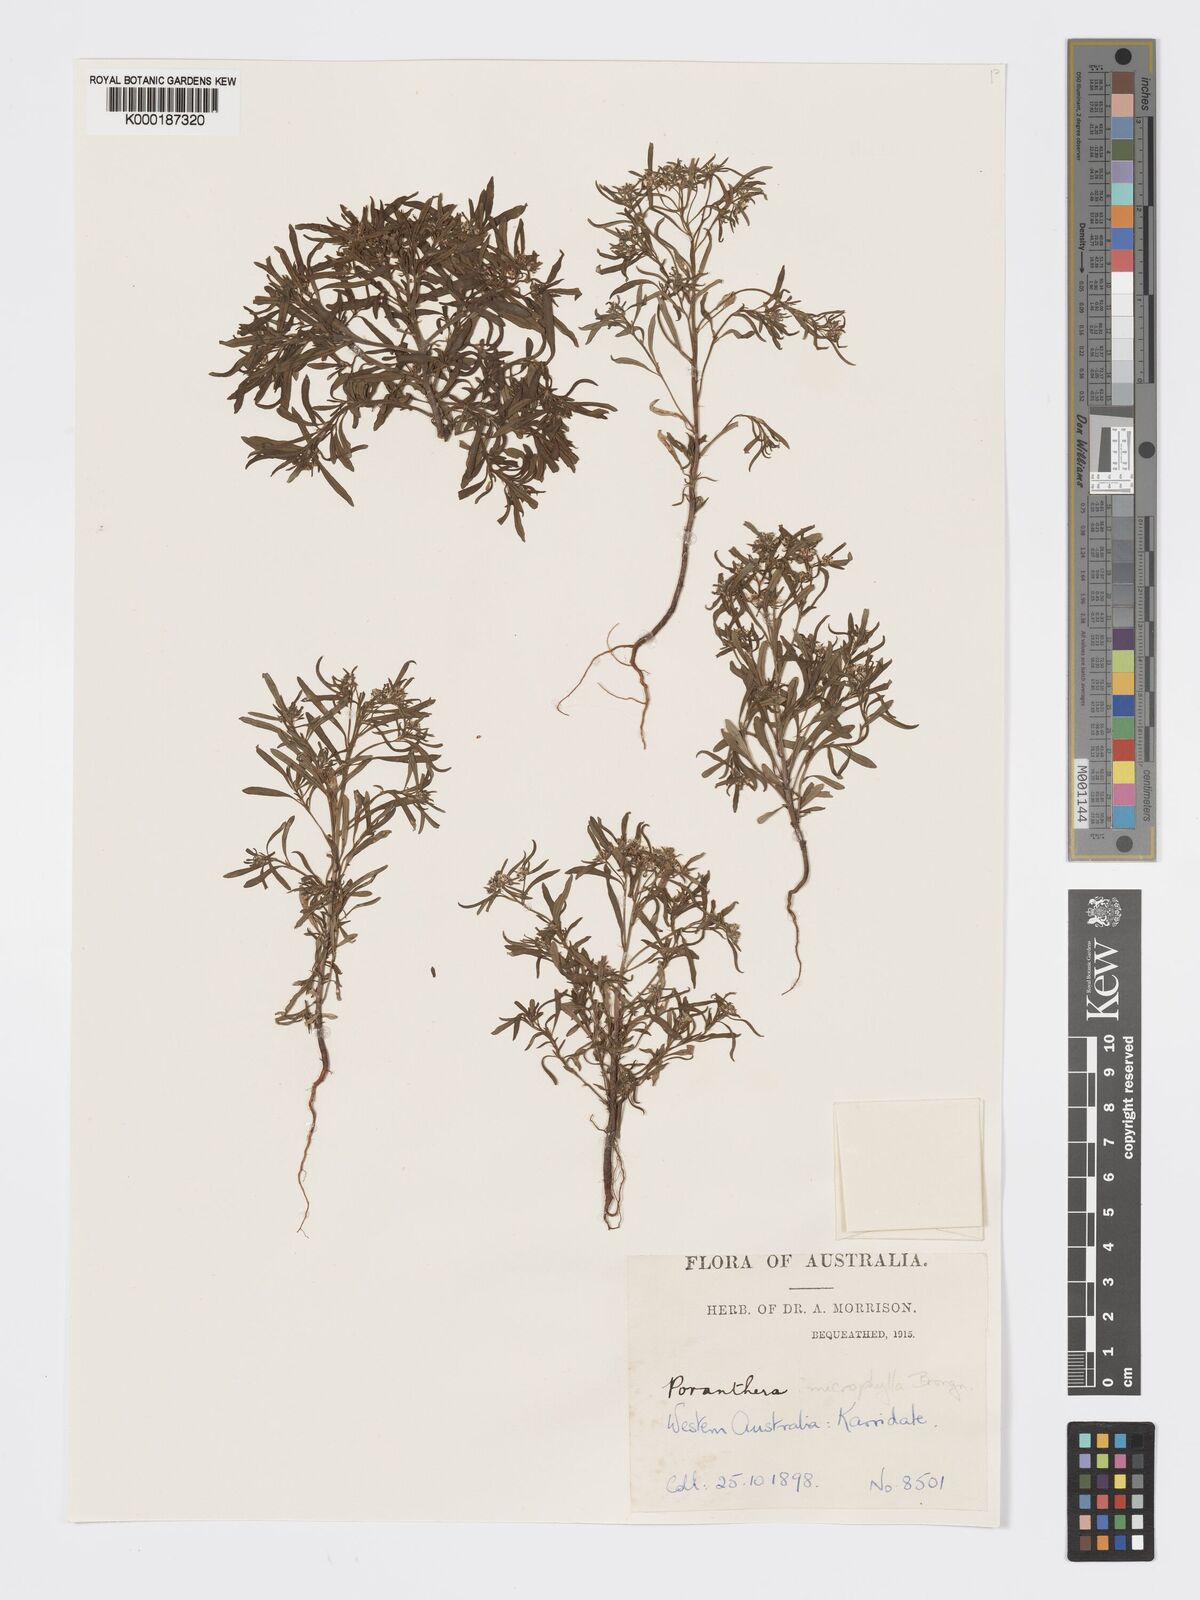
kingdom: Plantae
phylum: Tracheophyta
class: Magnoliopsida
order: Malpighiales
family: Phyllanthaceae
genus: Poranthera
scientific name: Poranthera microphylla
